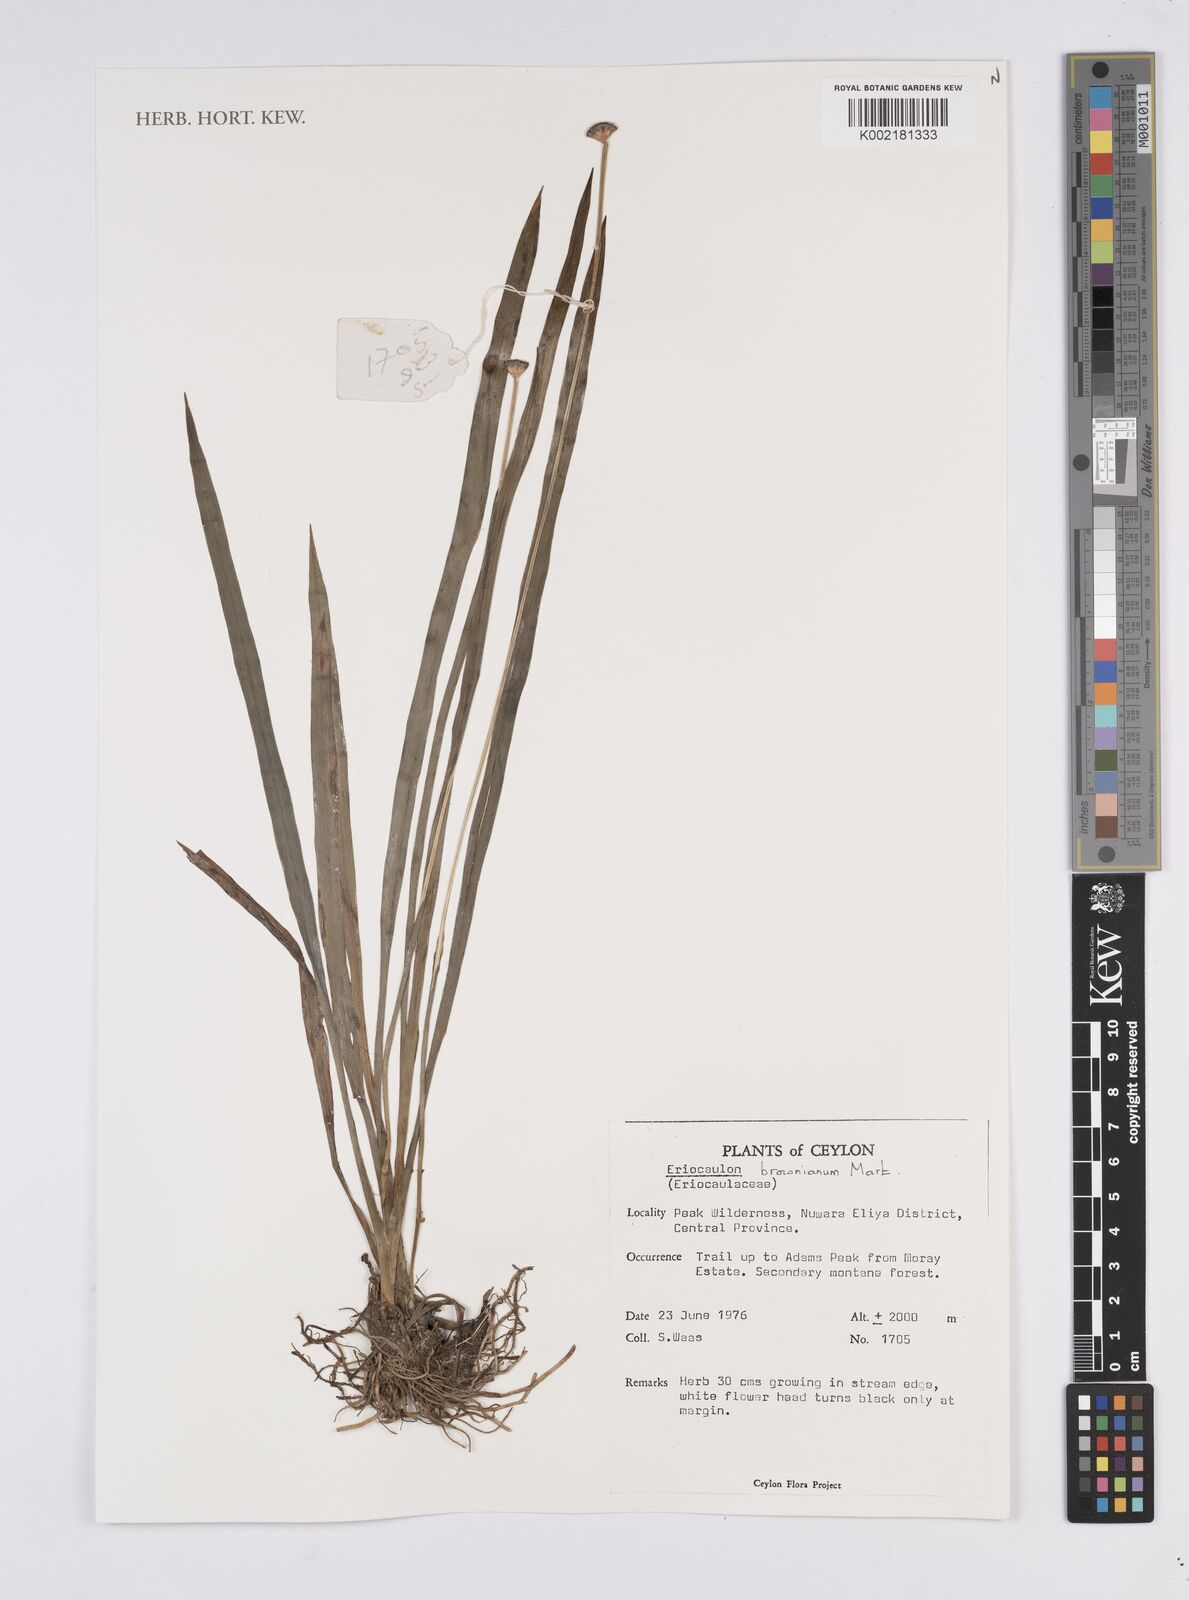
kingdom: Plantae
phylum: Tracheophyta
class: Liliopsida
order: Poales
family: Eriocaulaceae
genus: Eriocaulon
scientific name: Eriocaulon brownianum
